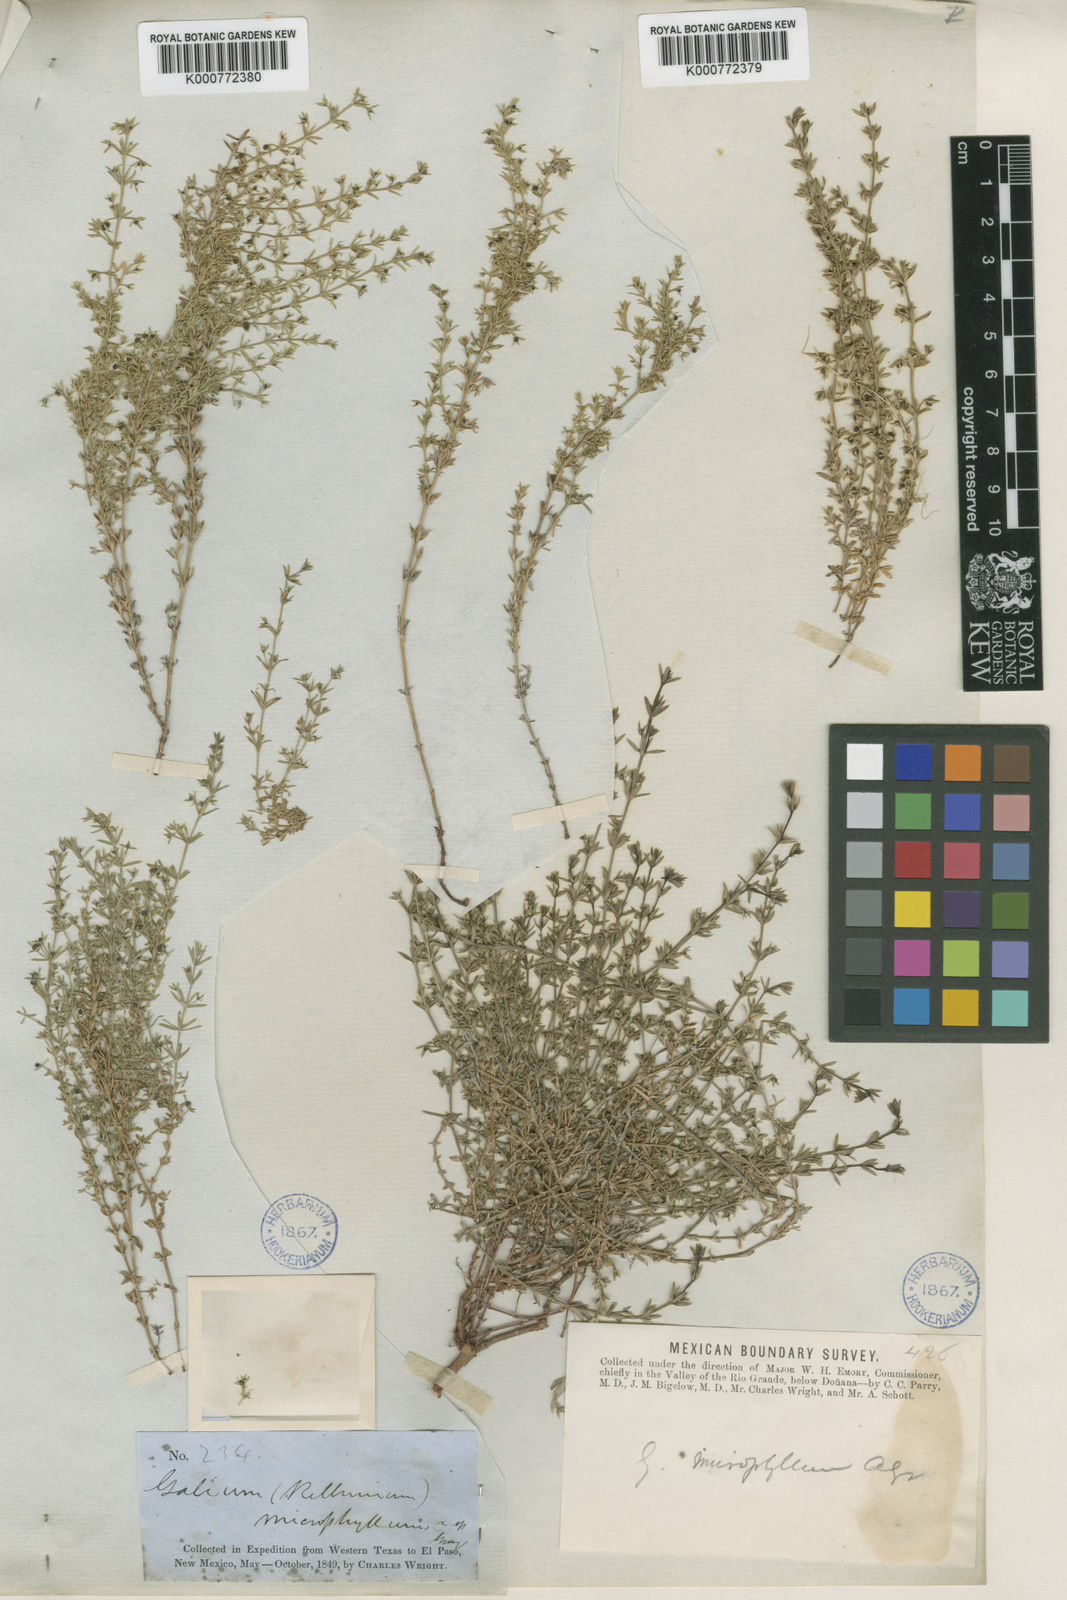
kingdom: Plantae
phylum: Tracheophyta
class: Magnoliopsida
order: Gentianales
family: Rubiaceae
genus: Galium
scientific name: Galium microphyllum
